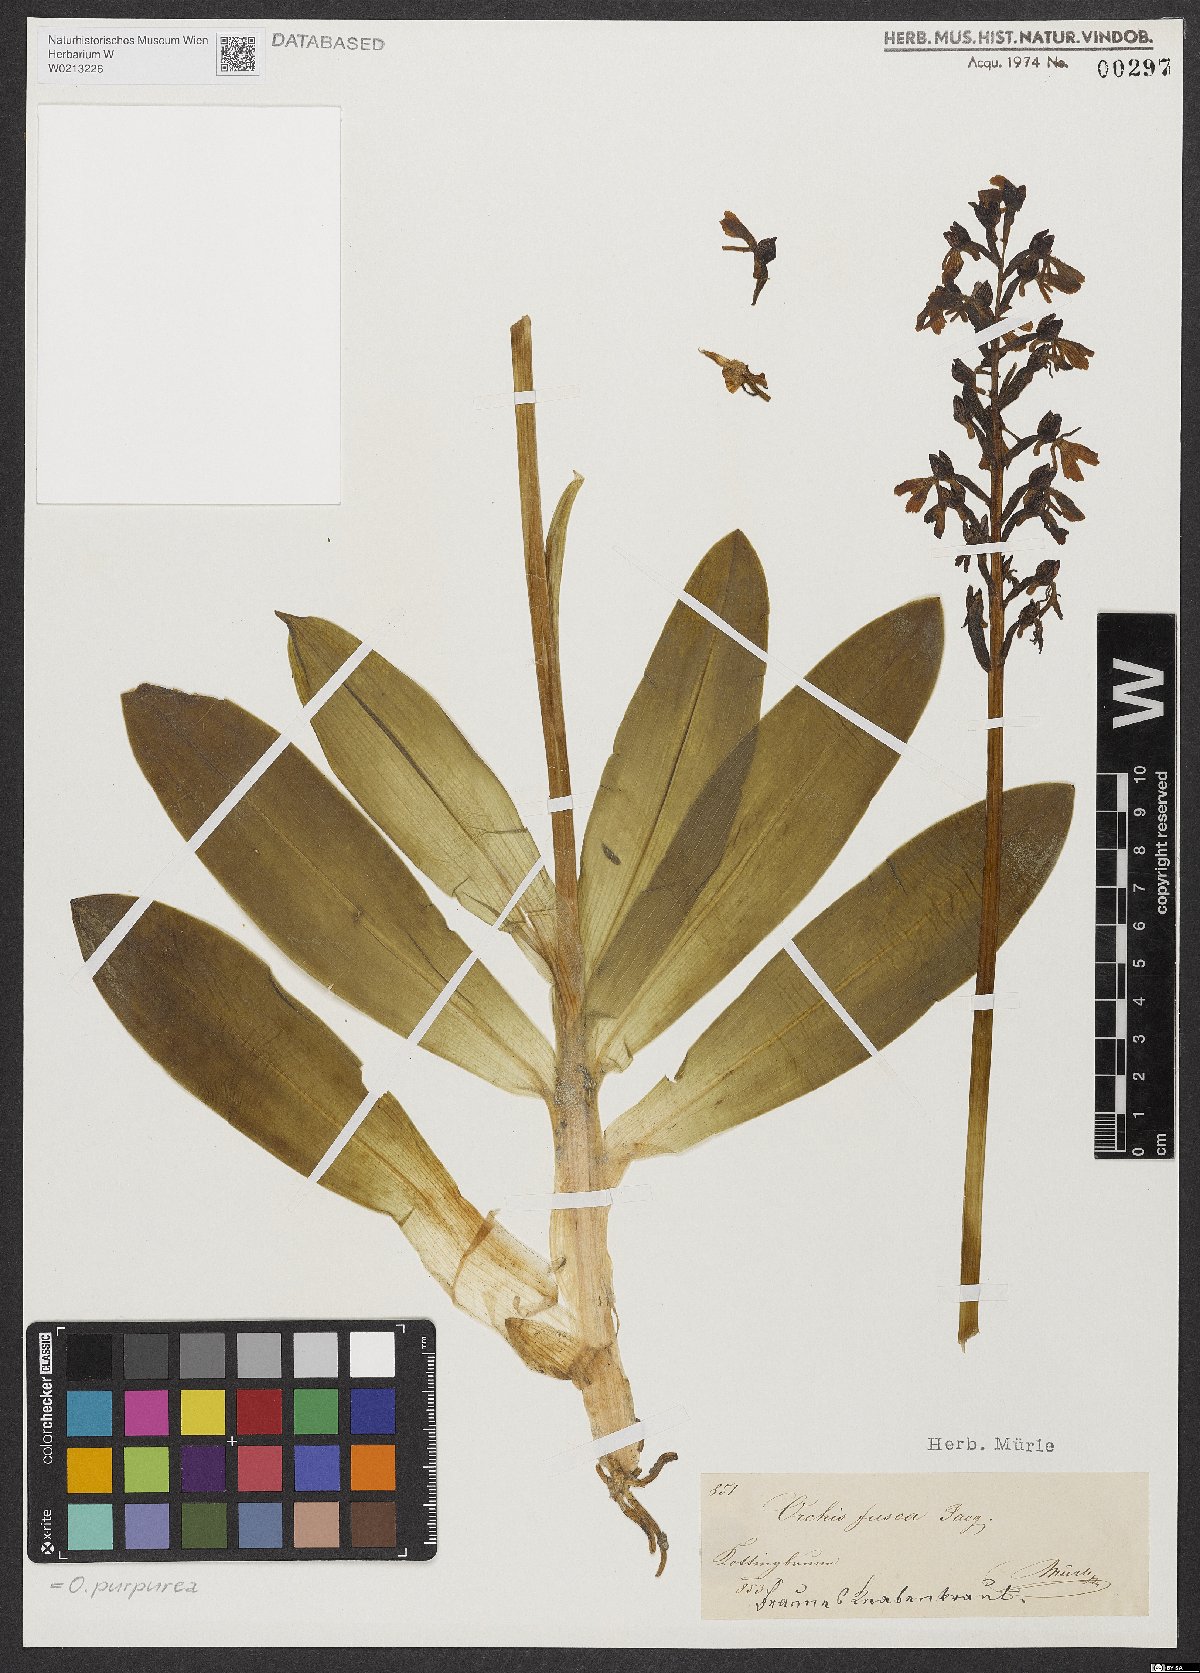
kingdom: Plantae
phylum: Tracheophyta
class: Liliopsida
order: Asparagales
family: Orchidaceae
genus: Orchis
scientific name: Orchis purpurea
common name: Lady orchid
